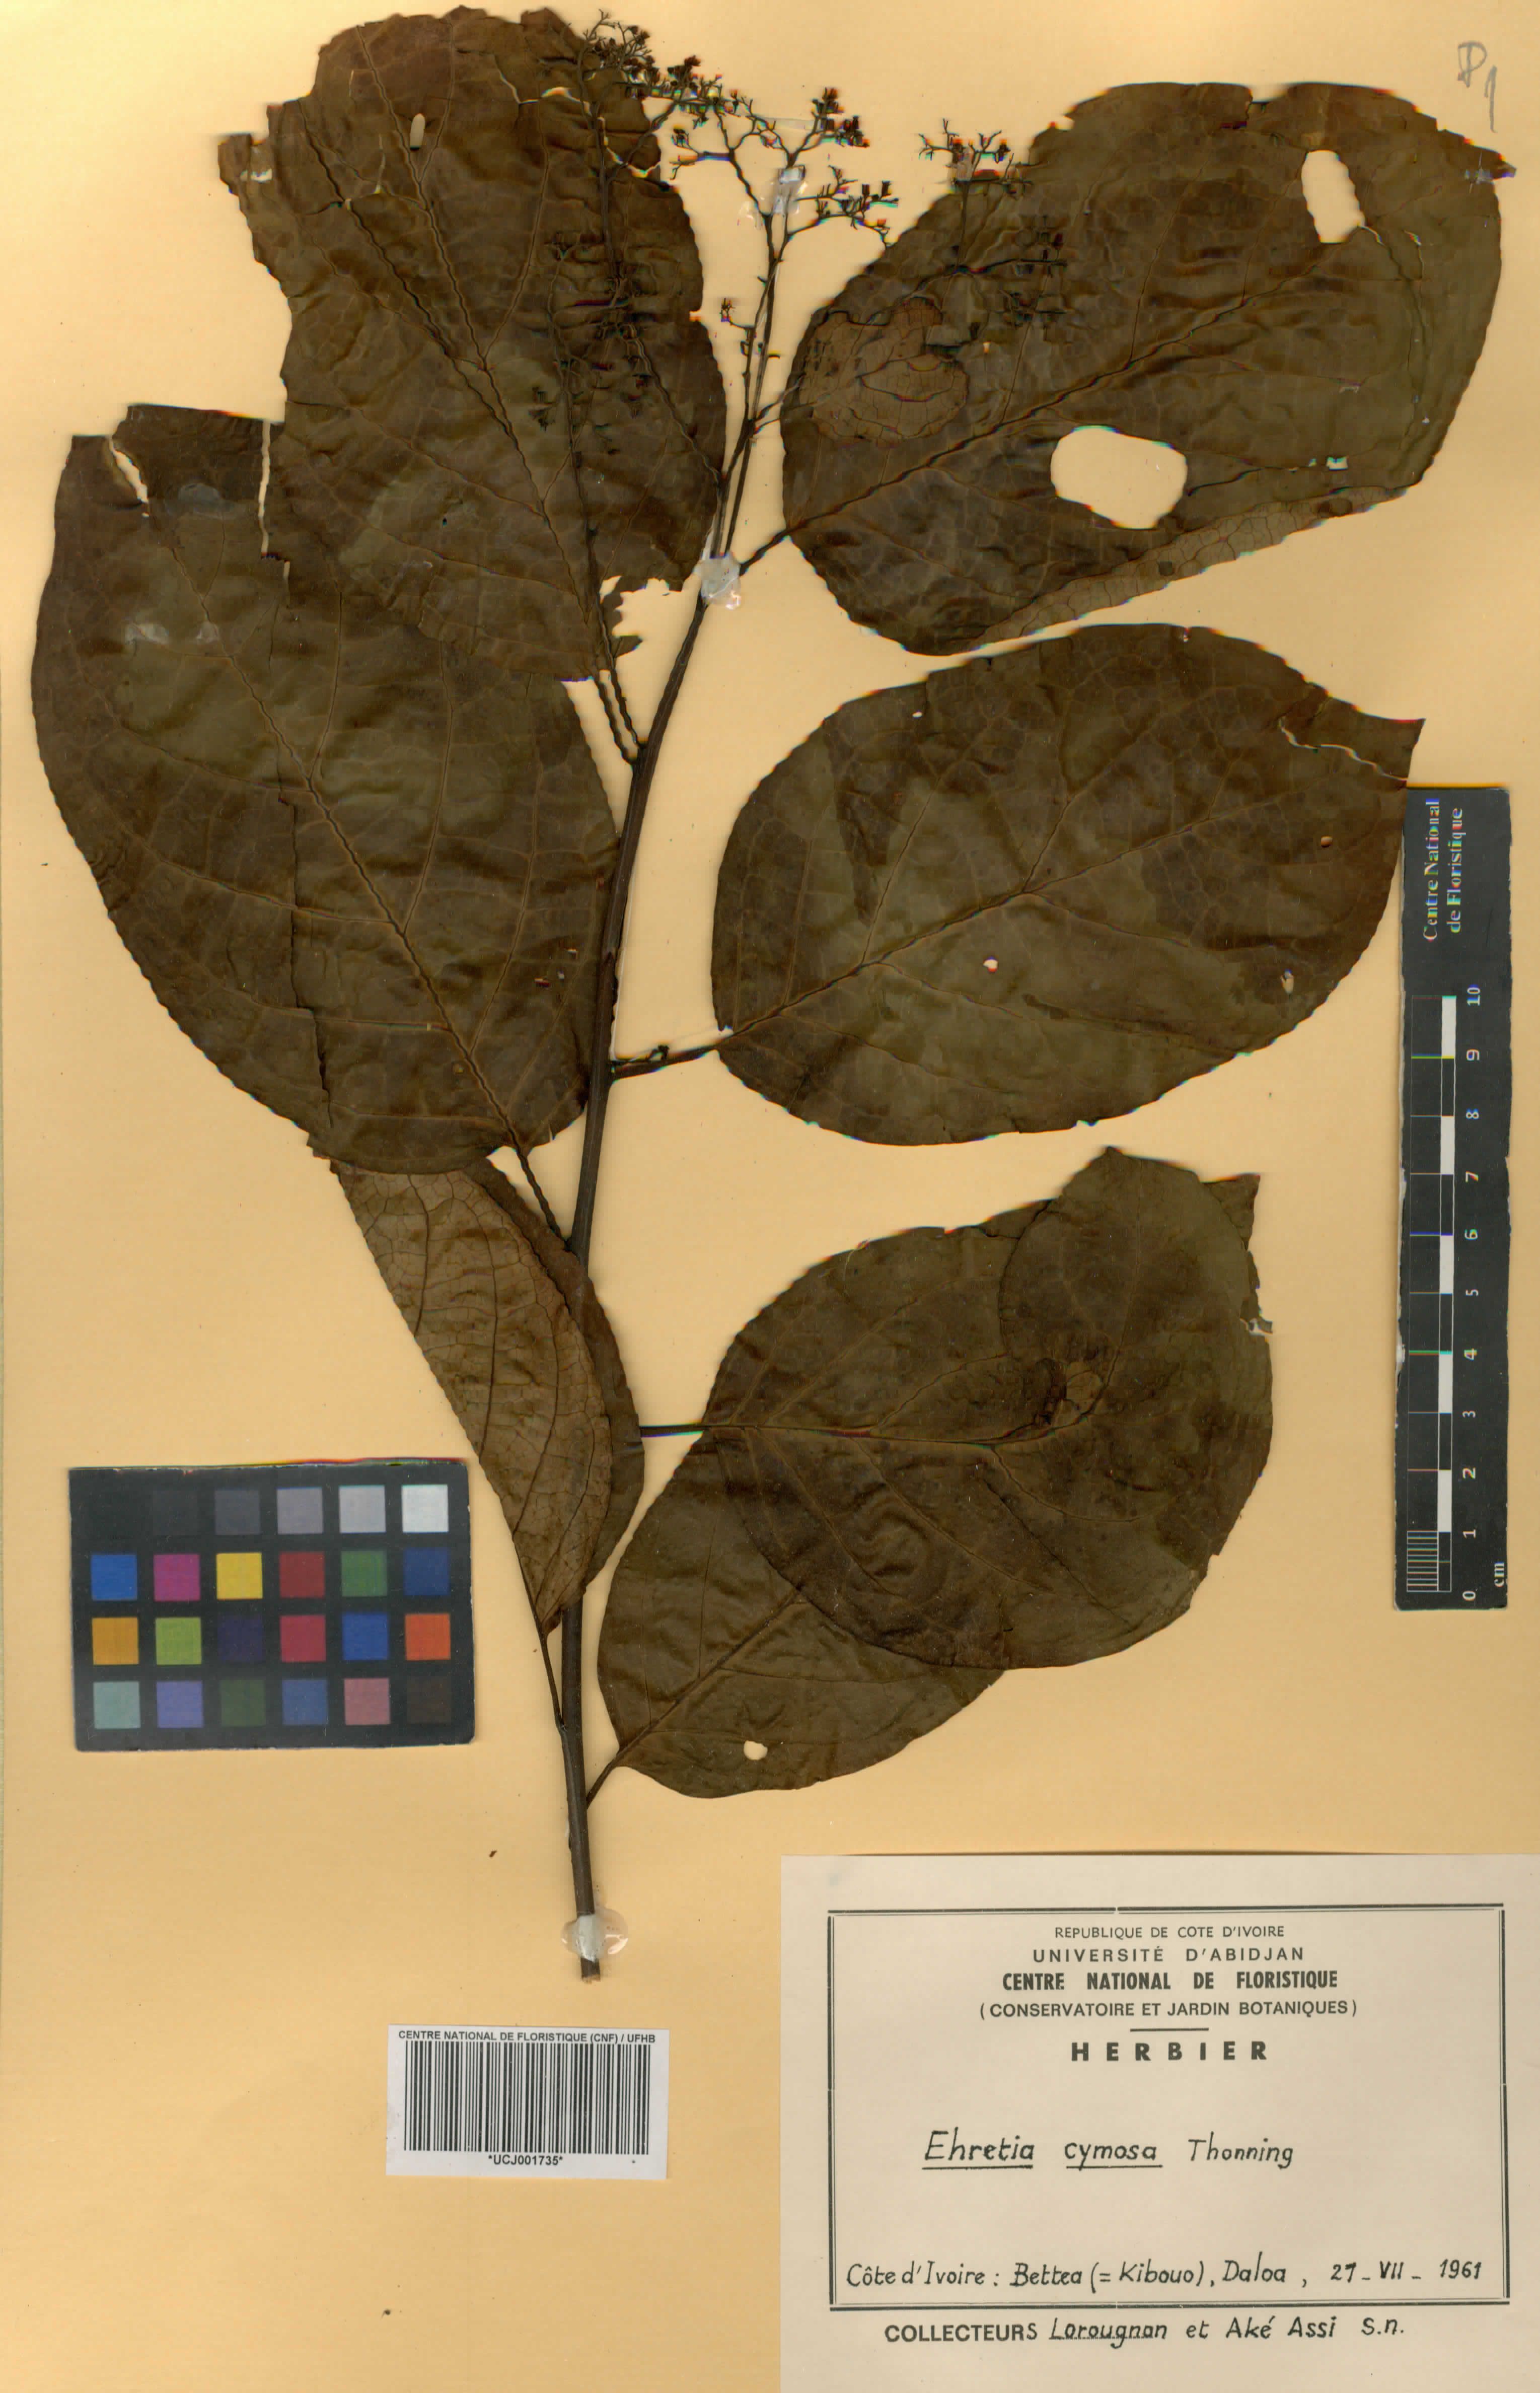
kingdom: Plantae
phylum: Tracheophyta
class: Magnoliopsida
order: Boraginales
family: Ehretiaceae
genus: Ehretia
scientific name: Ehretia cymosa
